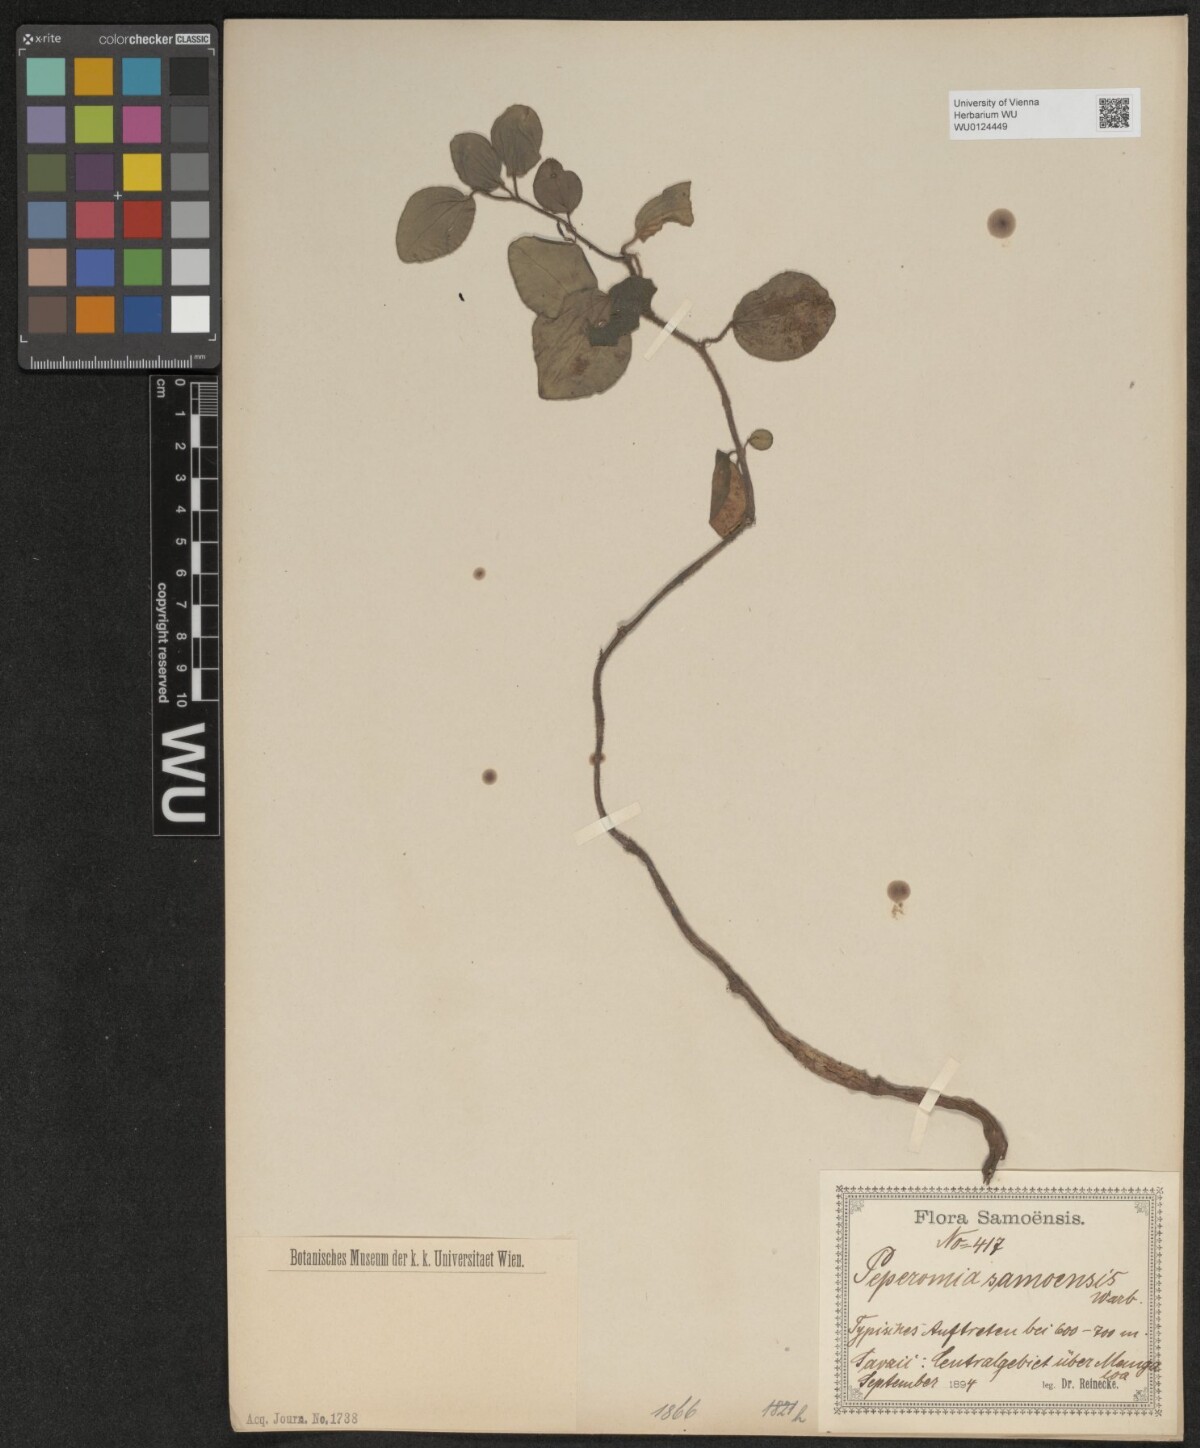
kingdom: Plantae
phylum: Tracheophyta
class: Magnoliopsida
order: Piperales
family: Piperaceae
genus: Peperomia
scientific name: Peperomia samoensis
